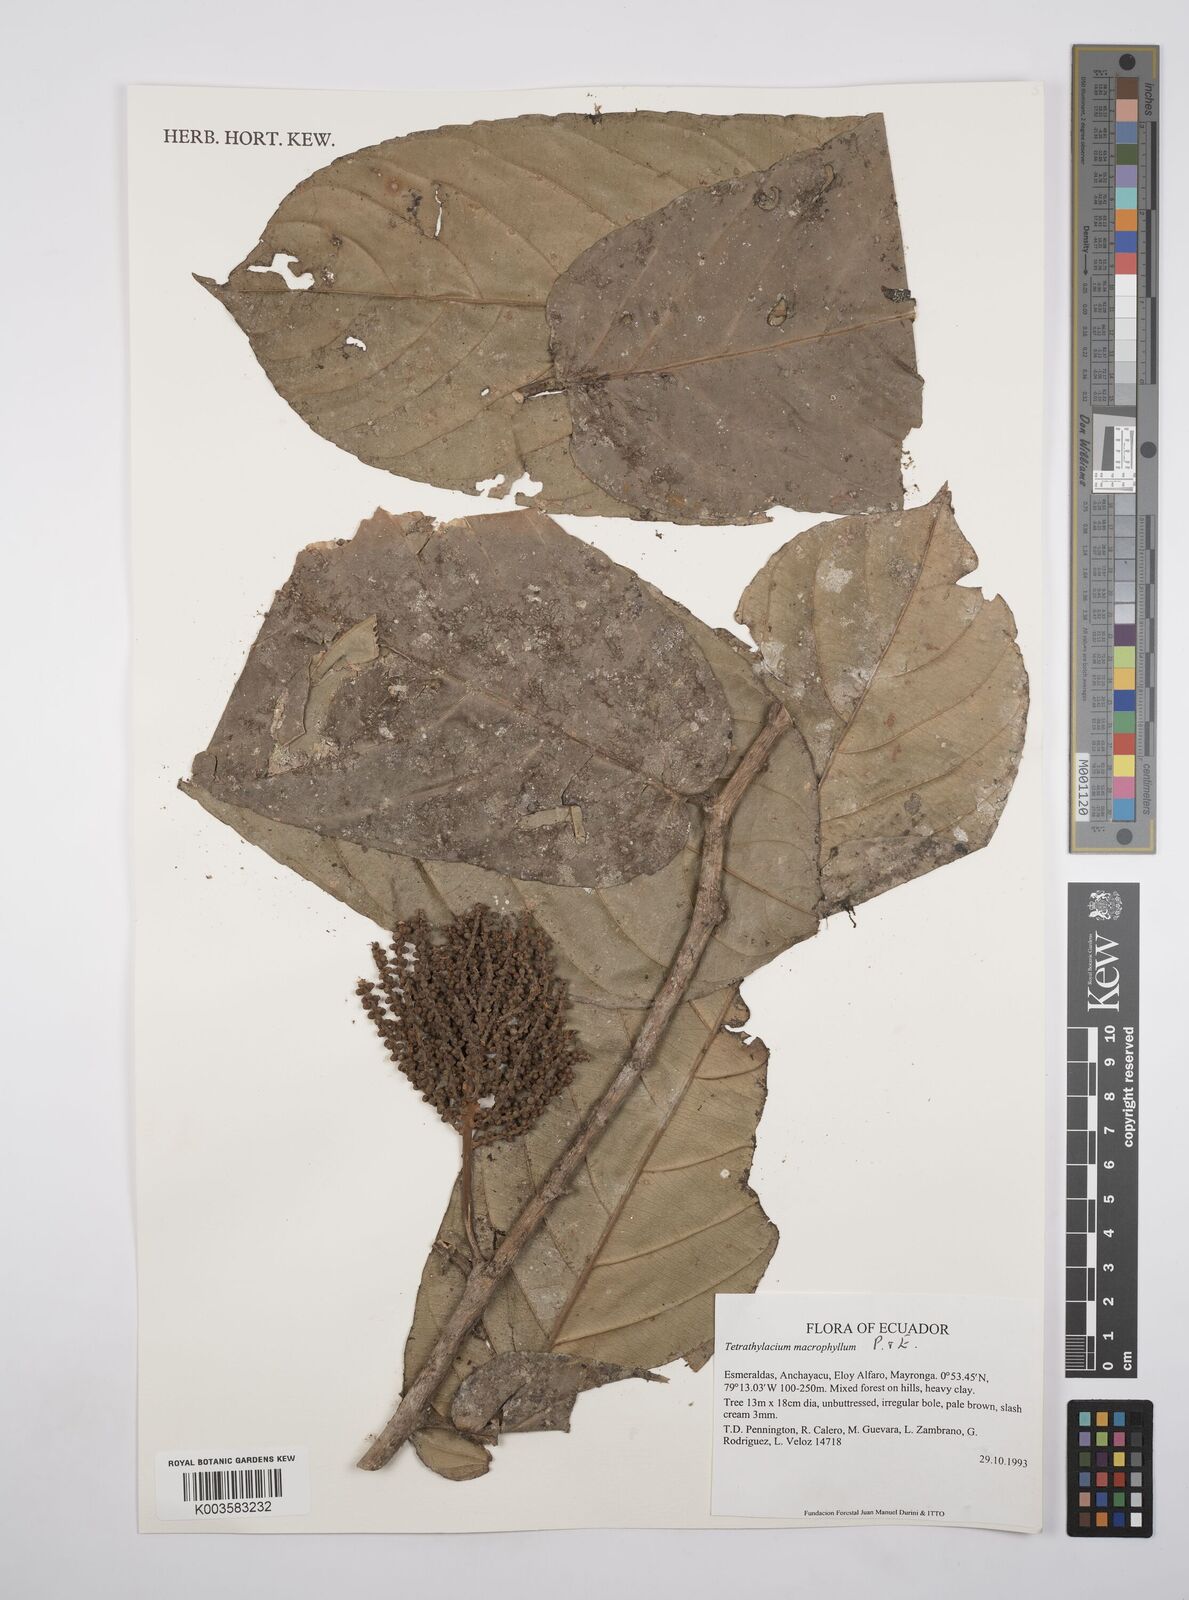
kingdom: Plantae
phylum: Tracheophyta
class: Magnoliopsida
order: Malpighiales
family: Salicaceae
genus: Tetrathylacium
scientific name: Tetrathylacium macrophyllum
